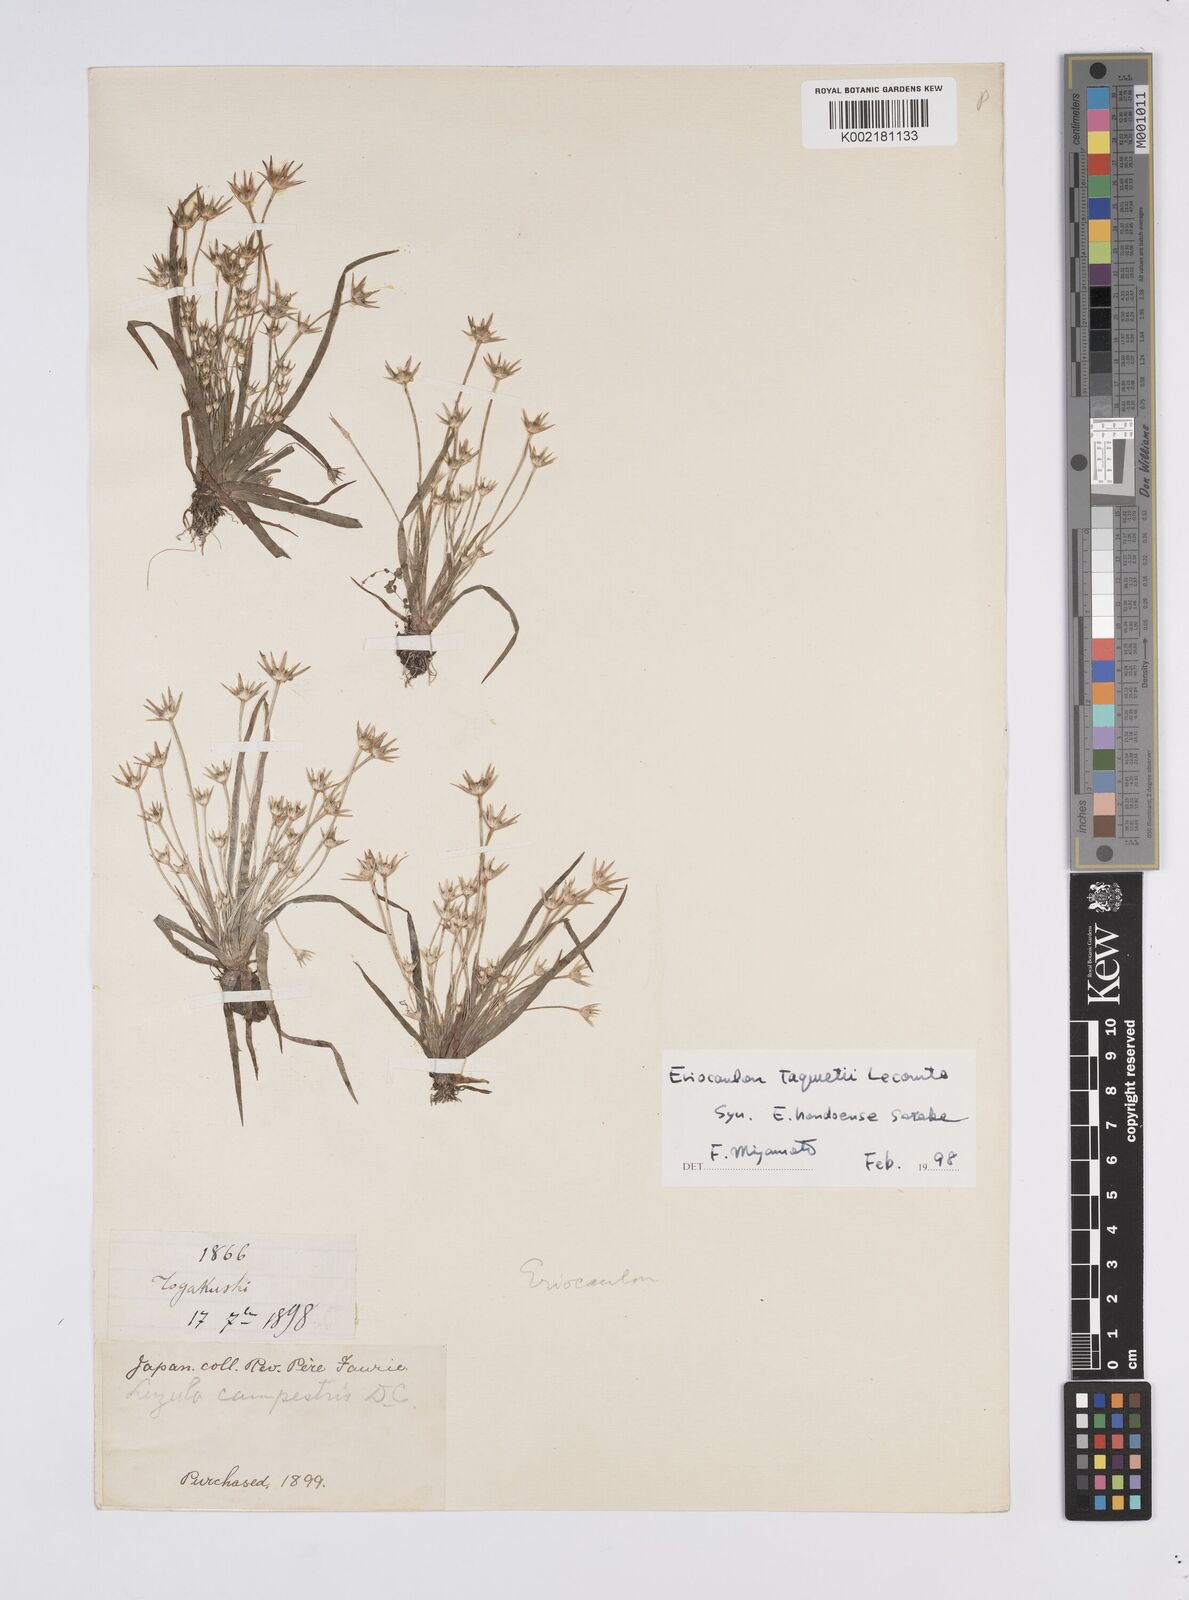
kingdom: Plantae
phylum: Tracheophyta
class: Liliopsida
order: Poales
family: Eriocaulaceae
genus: Eriocaulon
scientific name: Eriocaulon taquetii
